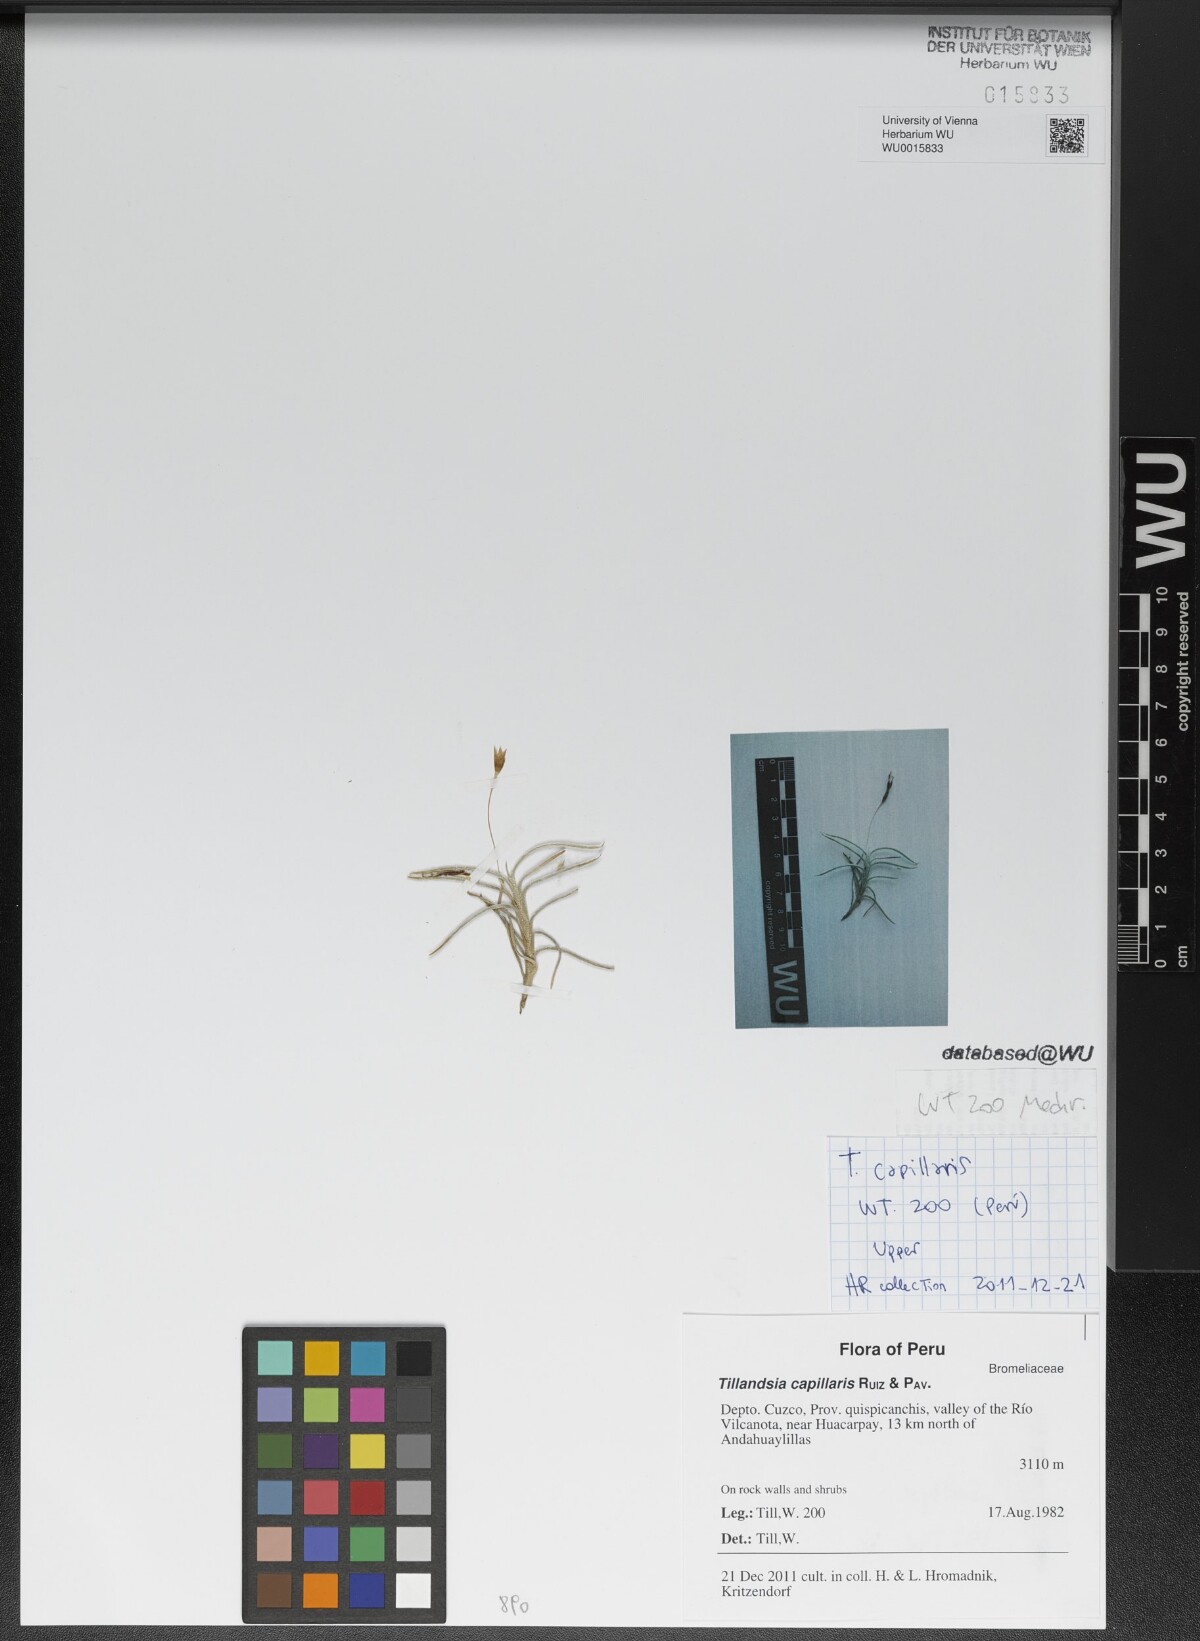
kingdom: Plantae
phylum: Tracheophyta
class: Liliopsida
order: Poales
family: Bromeliaceae
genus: Tillandsia
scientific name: Tillandsia capillaris
